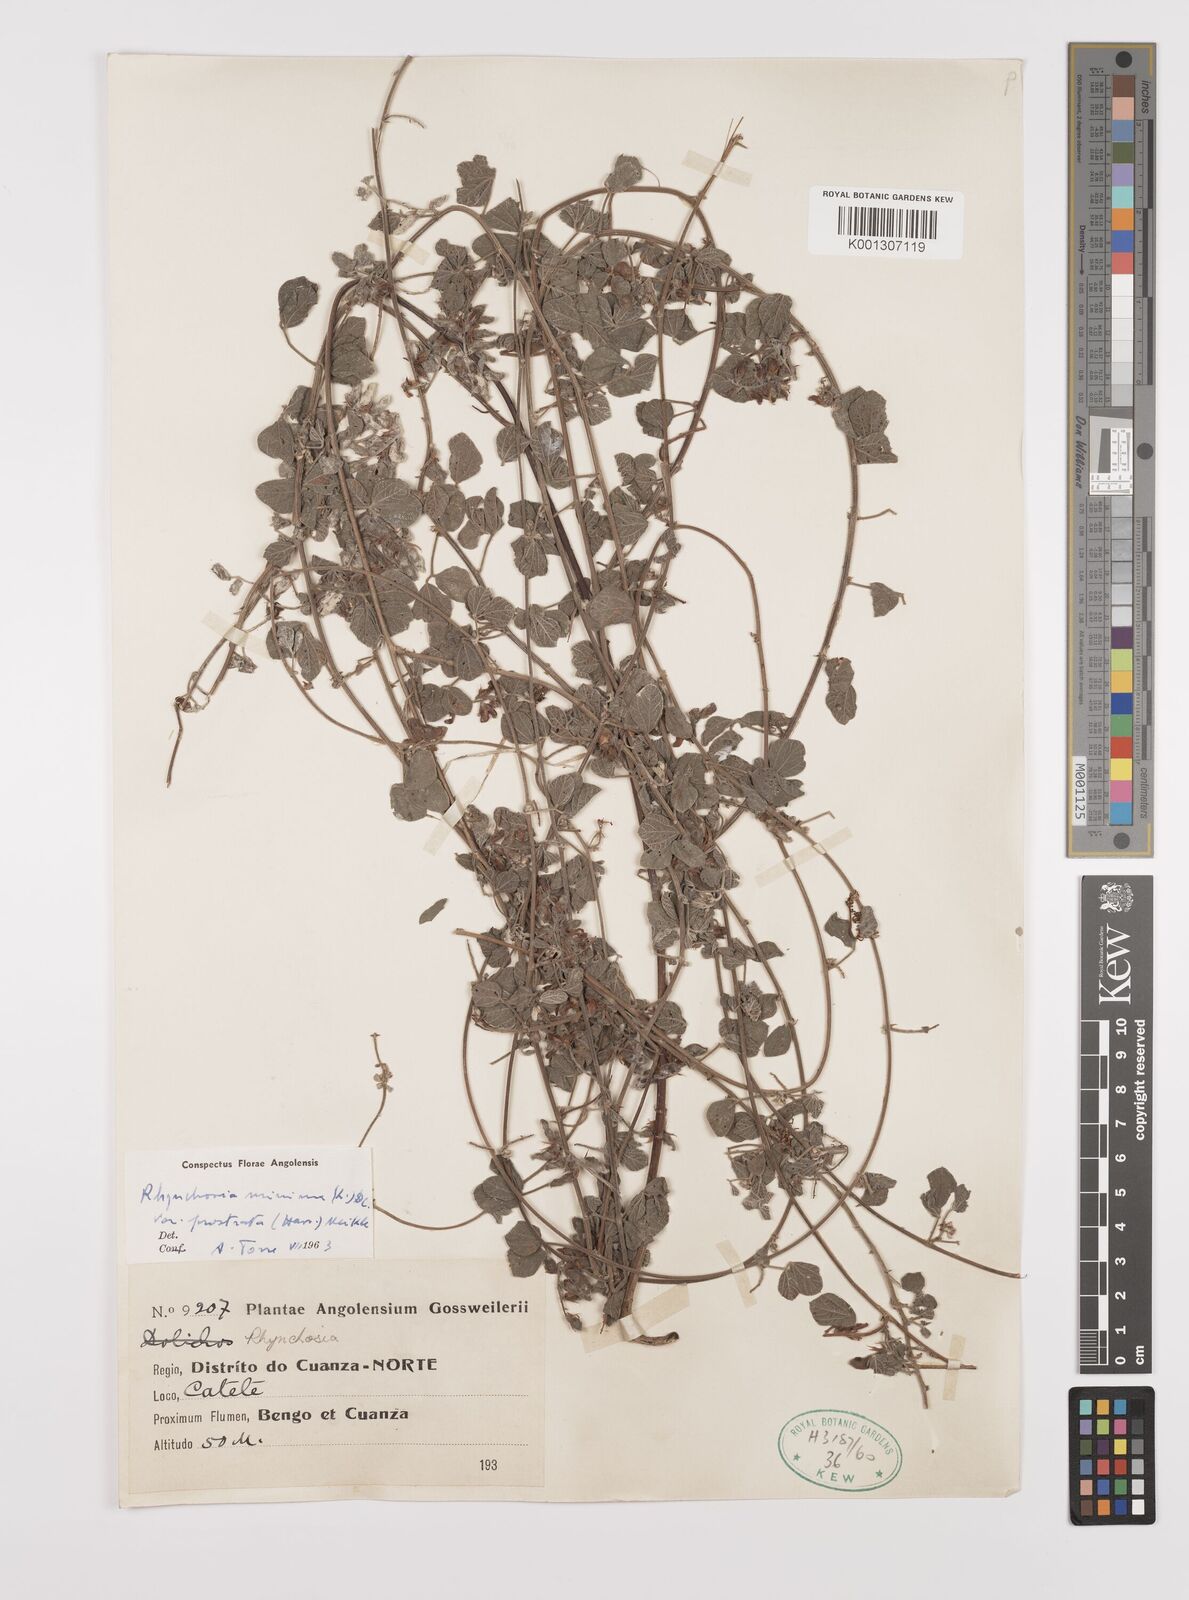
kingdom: Plantae
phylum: Tracheophyta
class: Magnoliopsida
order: Fabales
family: Fabaceae
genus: Rhynchosia
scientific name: Rhynchosia minima
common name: Least snoutbean
